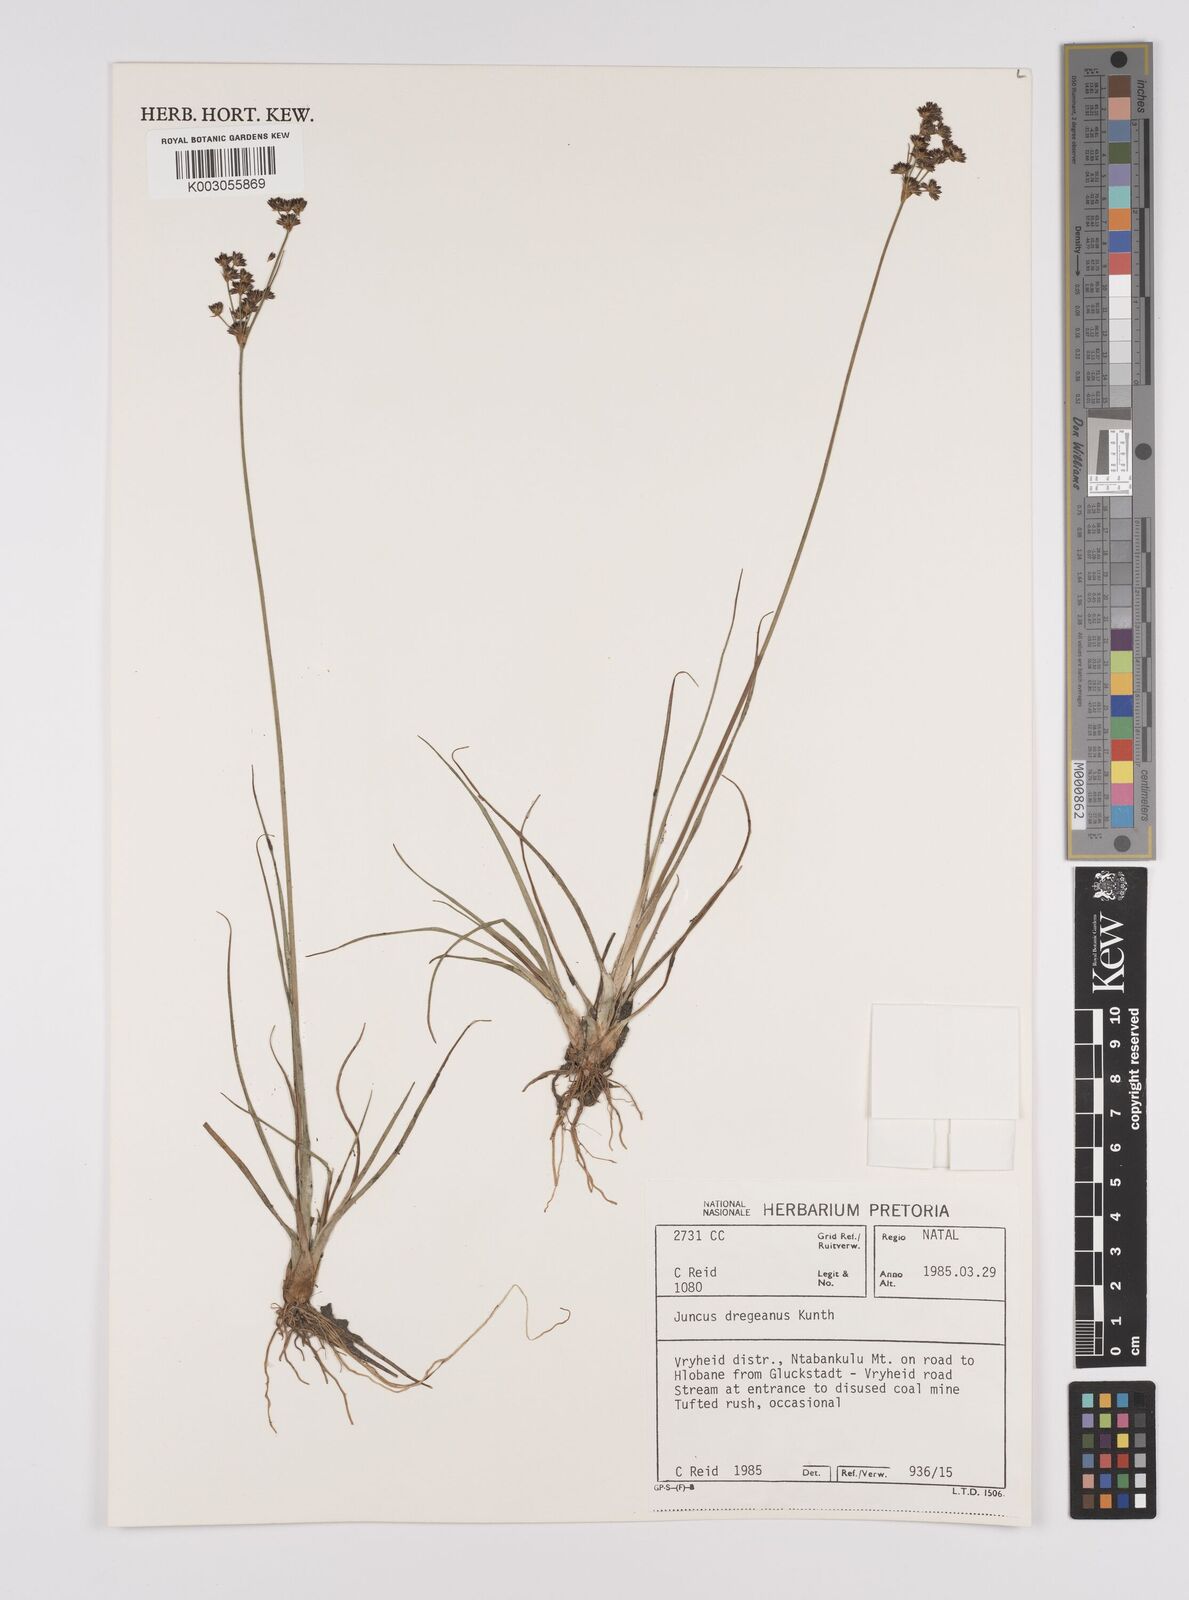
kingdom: Plantae
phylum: Tracheophyta
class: Liliopsida
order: Poales
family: Juncaceae
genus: Juncus
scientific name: Juncus dregeanus
